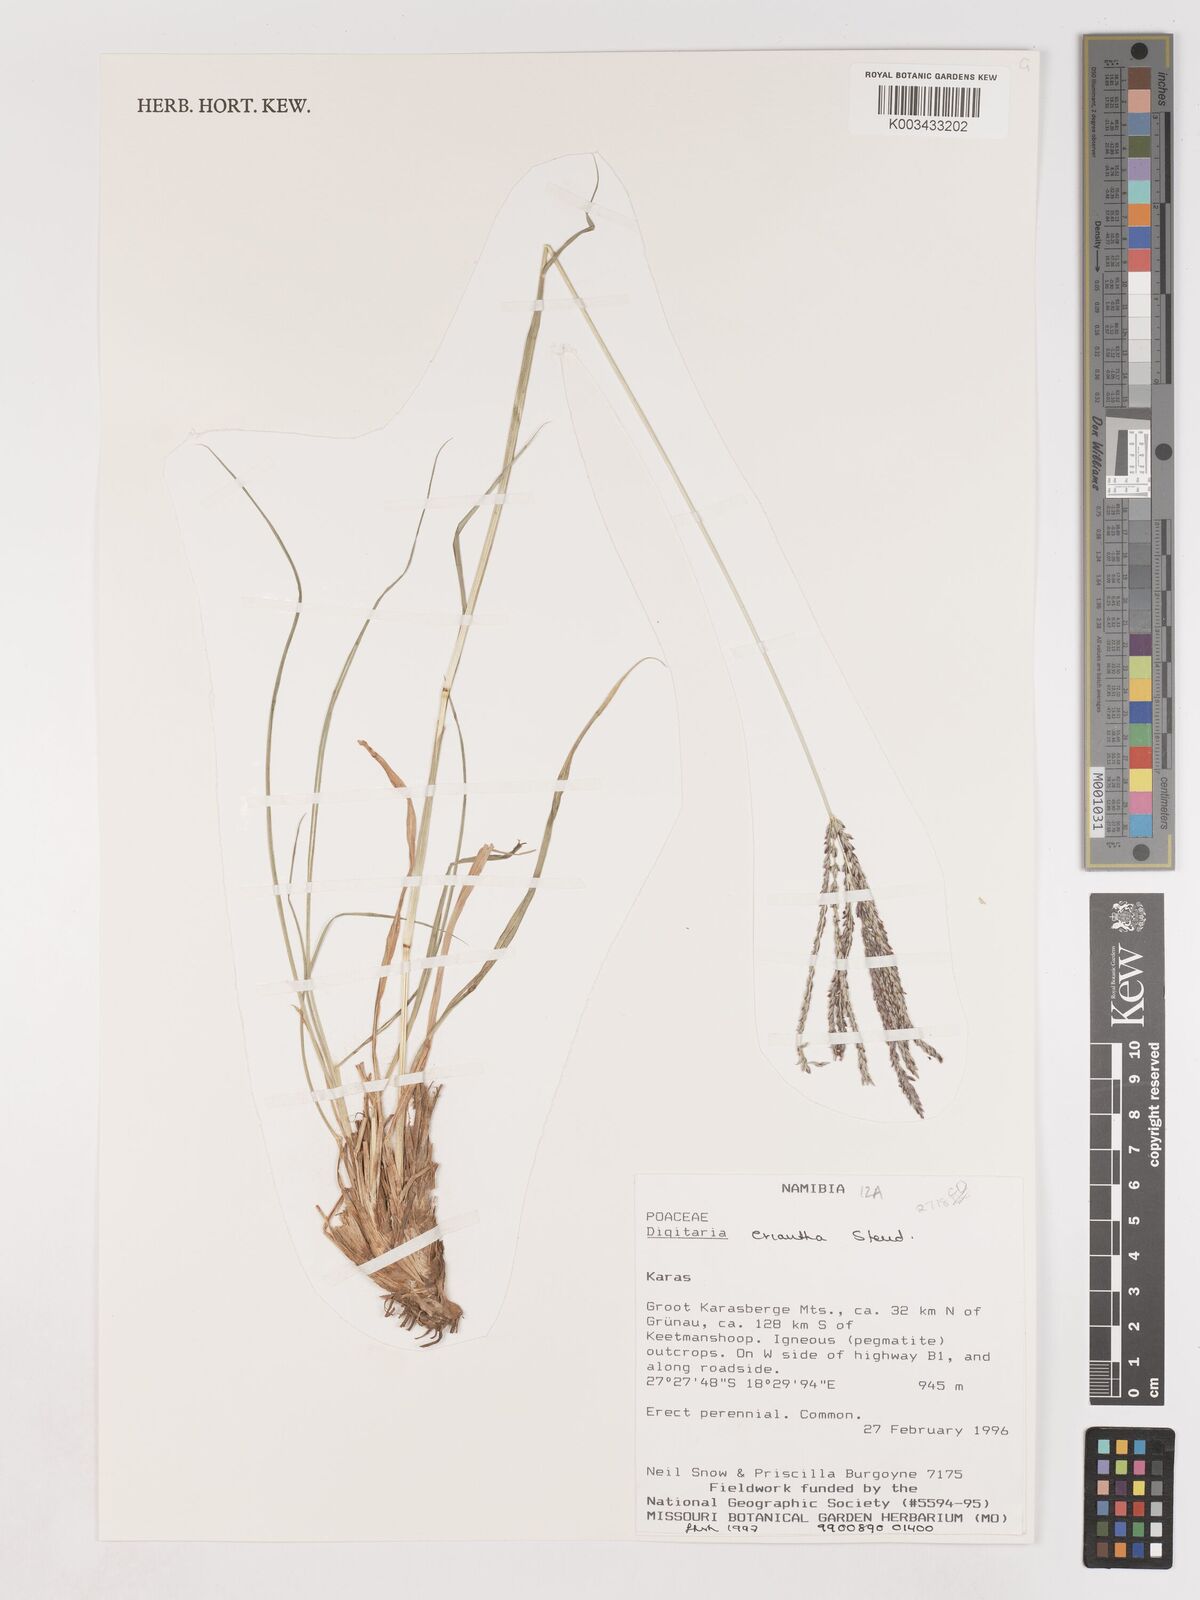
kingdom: Plantae
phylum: Tracheophyta
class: Liliopsida
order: Poales
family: Poaceae
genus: Digitaria
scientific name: Digitaria eriantha
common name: Digitgrass
